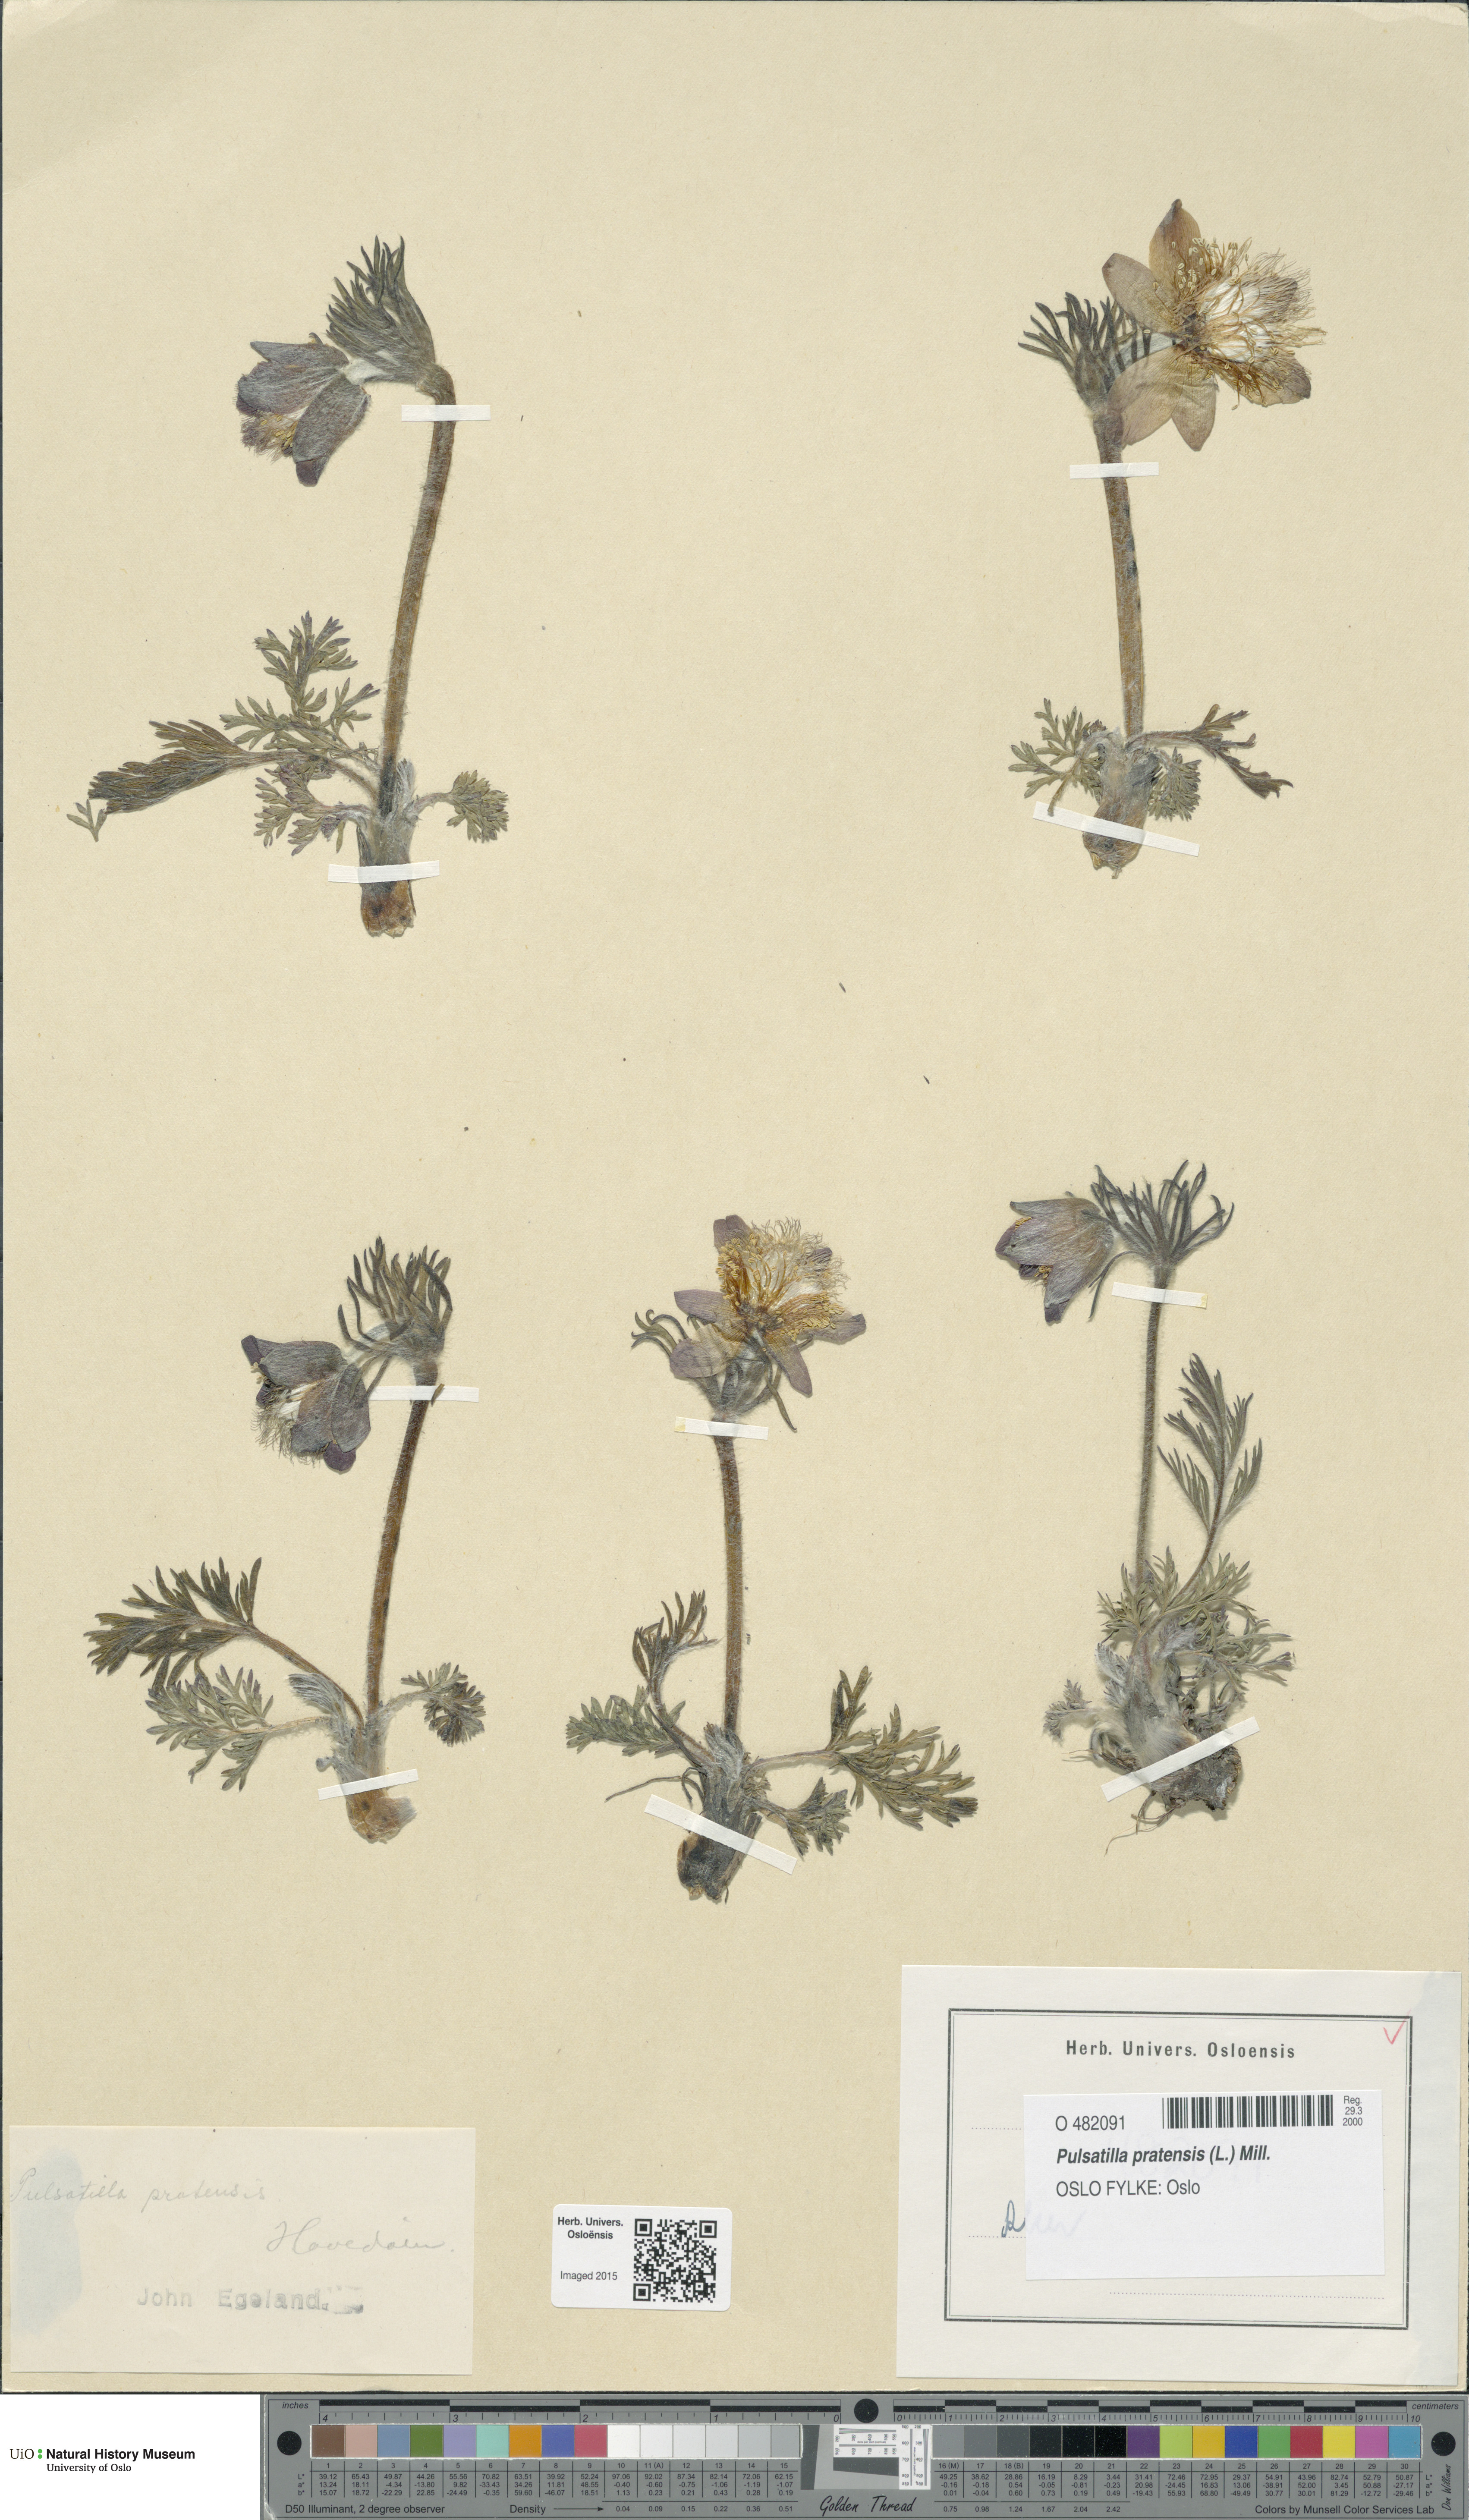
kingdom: Plantae
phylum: Tracheophyta
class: Magnoliopsida
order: Ranunculales
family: Ranunculaceae
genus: Pulsatilla
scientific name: Pulsatilla pratensis
